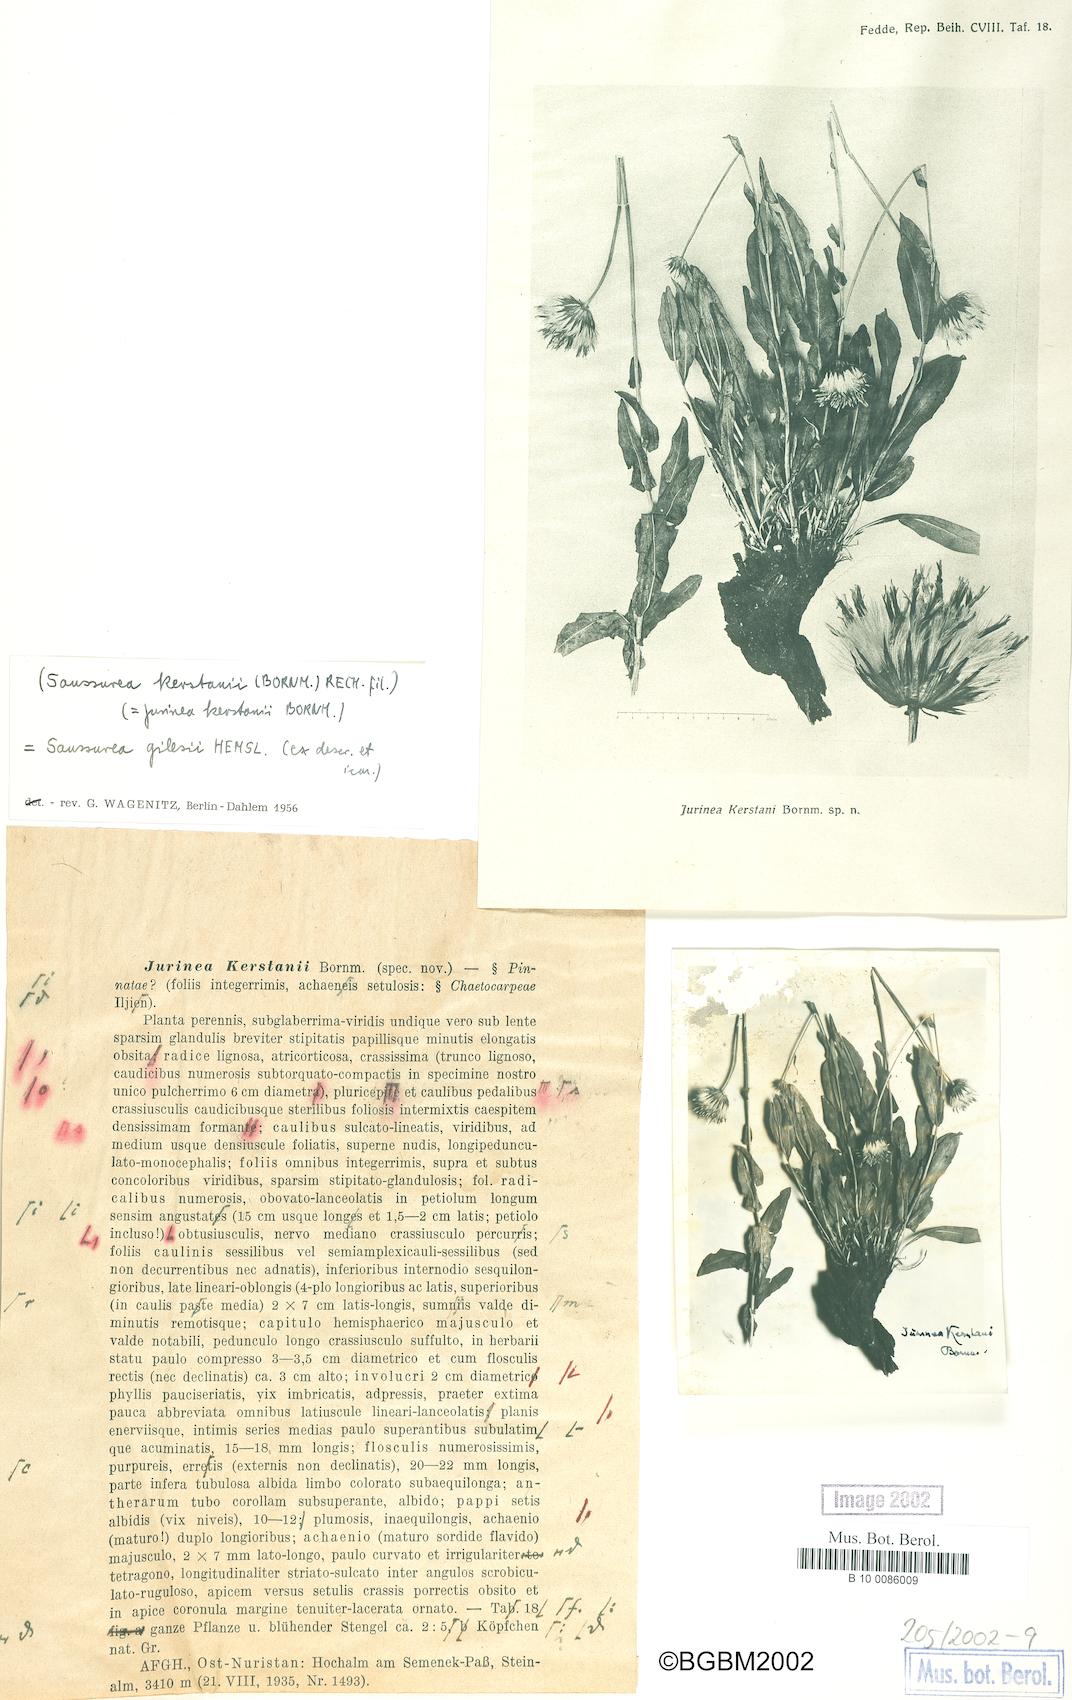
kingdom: Plantae
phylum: Tracheophyta
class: Magnoliopsida
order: Asterales
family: Asteraceae
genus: Jurinea
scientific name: Jurinea gilesii
